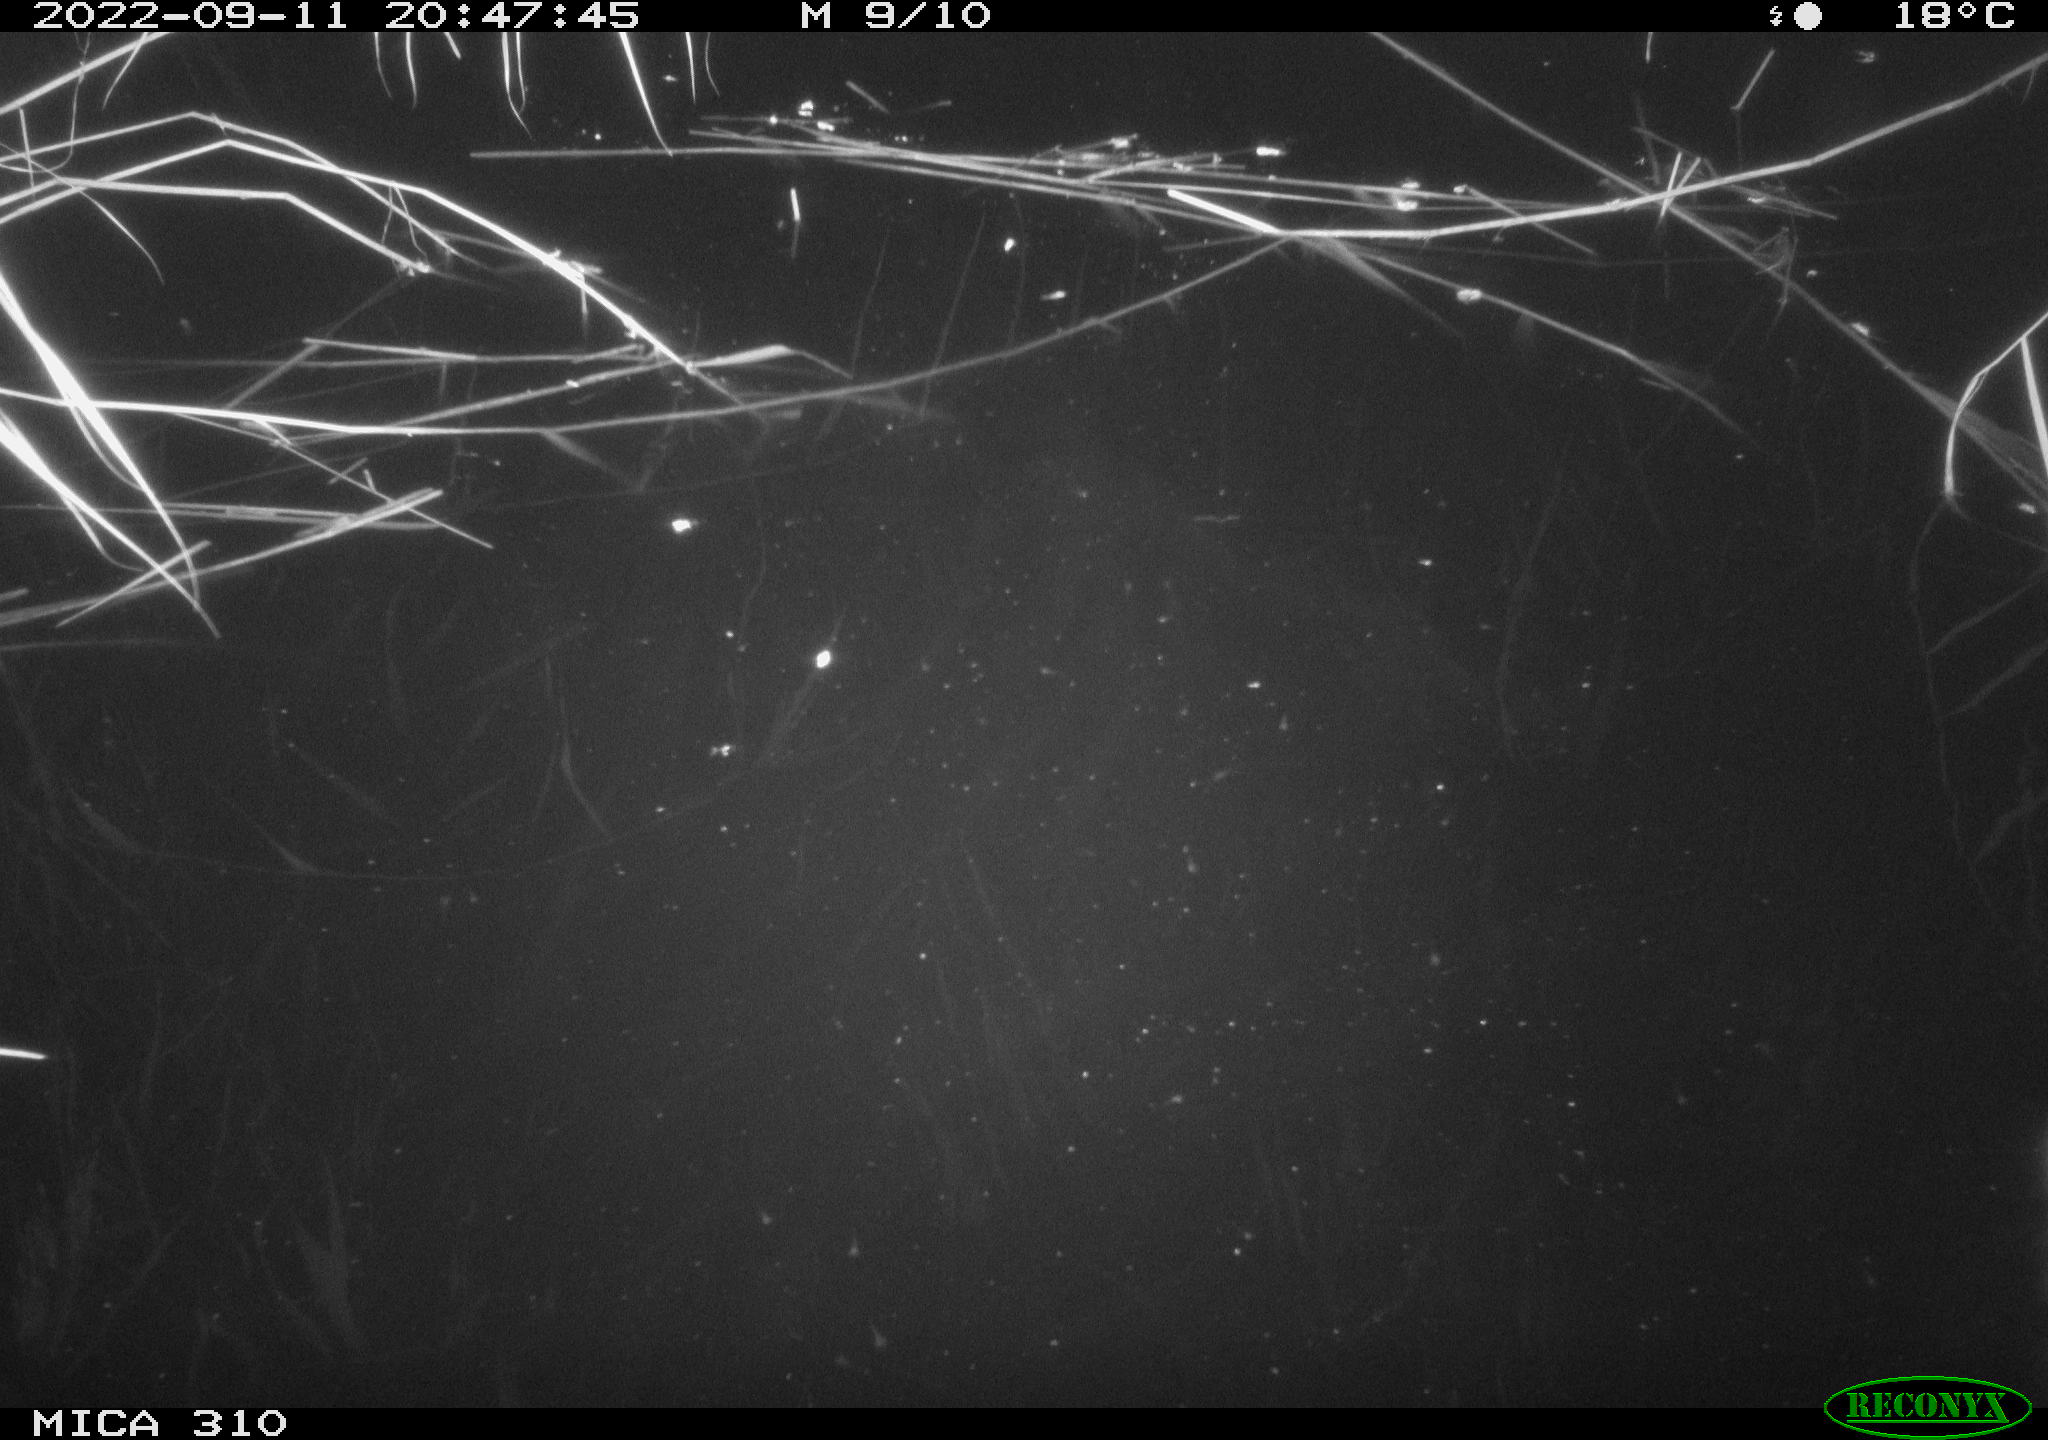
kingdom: Animalia
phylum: Chordata
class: Aves
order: Anseriformes
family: Anatidae
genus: Anas
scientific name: Anas
